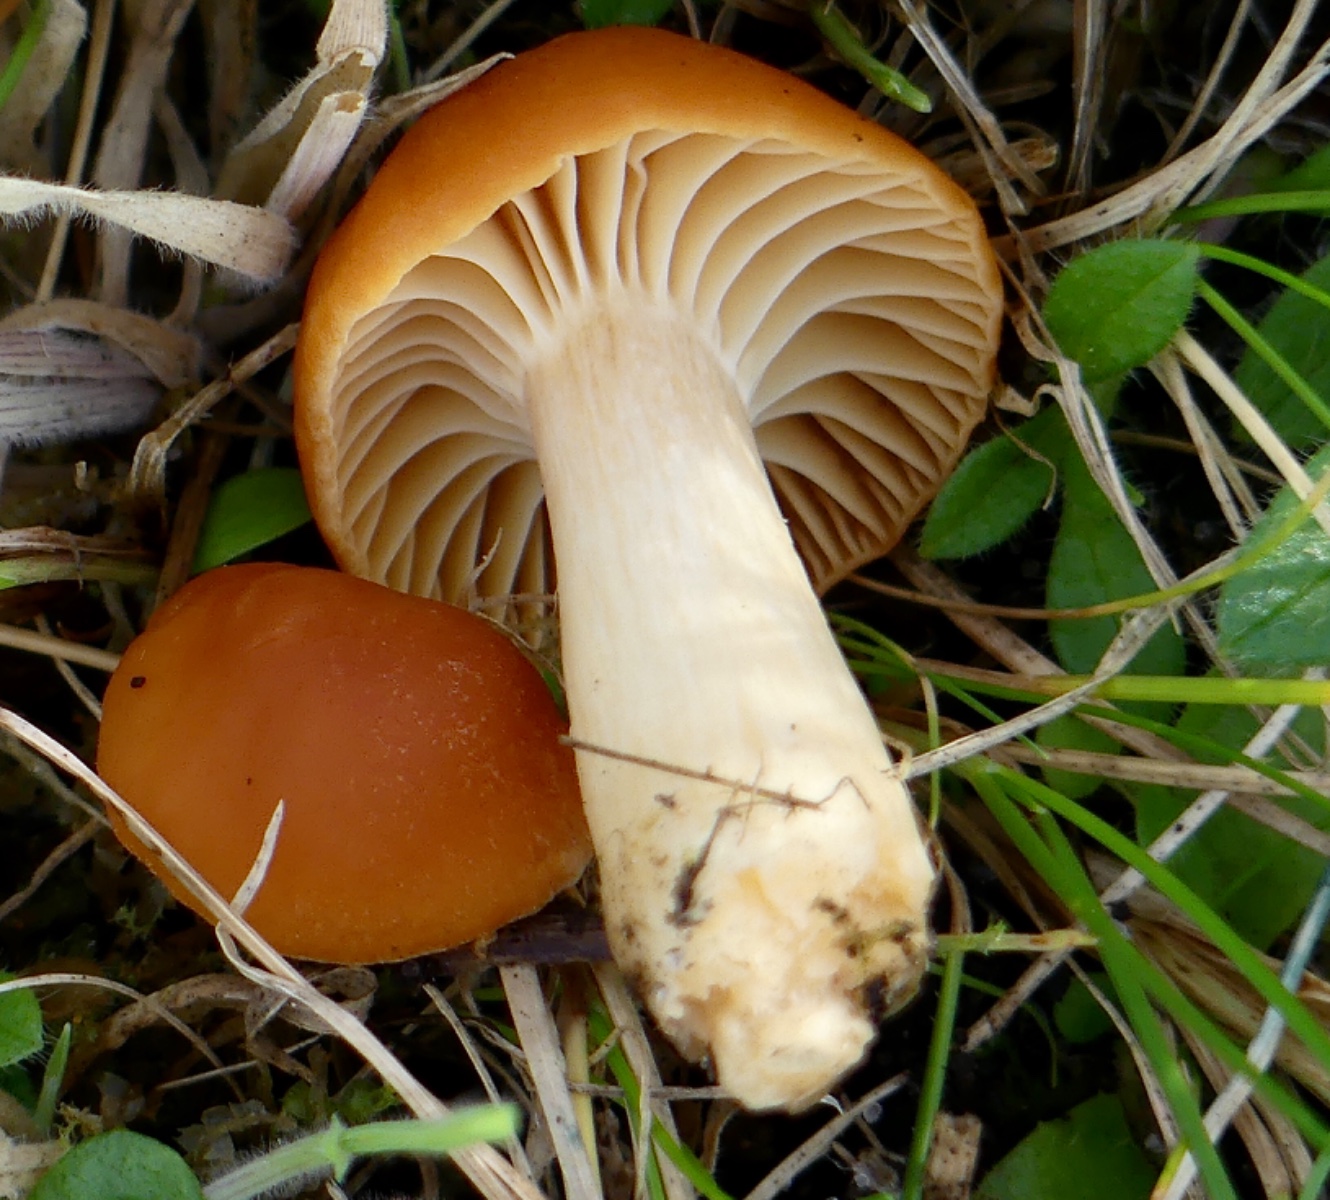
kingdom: Fungi
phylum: Basidiomycota
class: Agaricomycetes
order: Agaricales
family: Hygrophoraceae
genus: Cuphophyllus
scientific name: Cuphophyllus pratensis
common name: eng-vokshat
